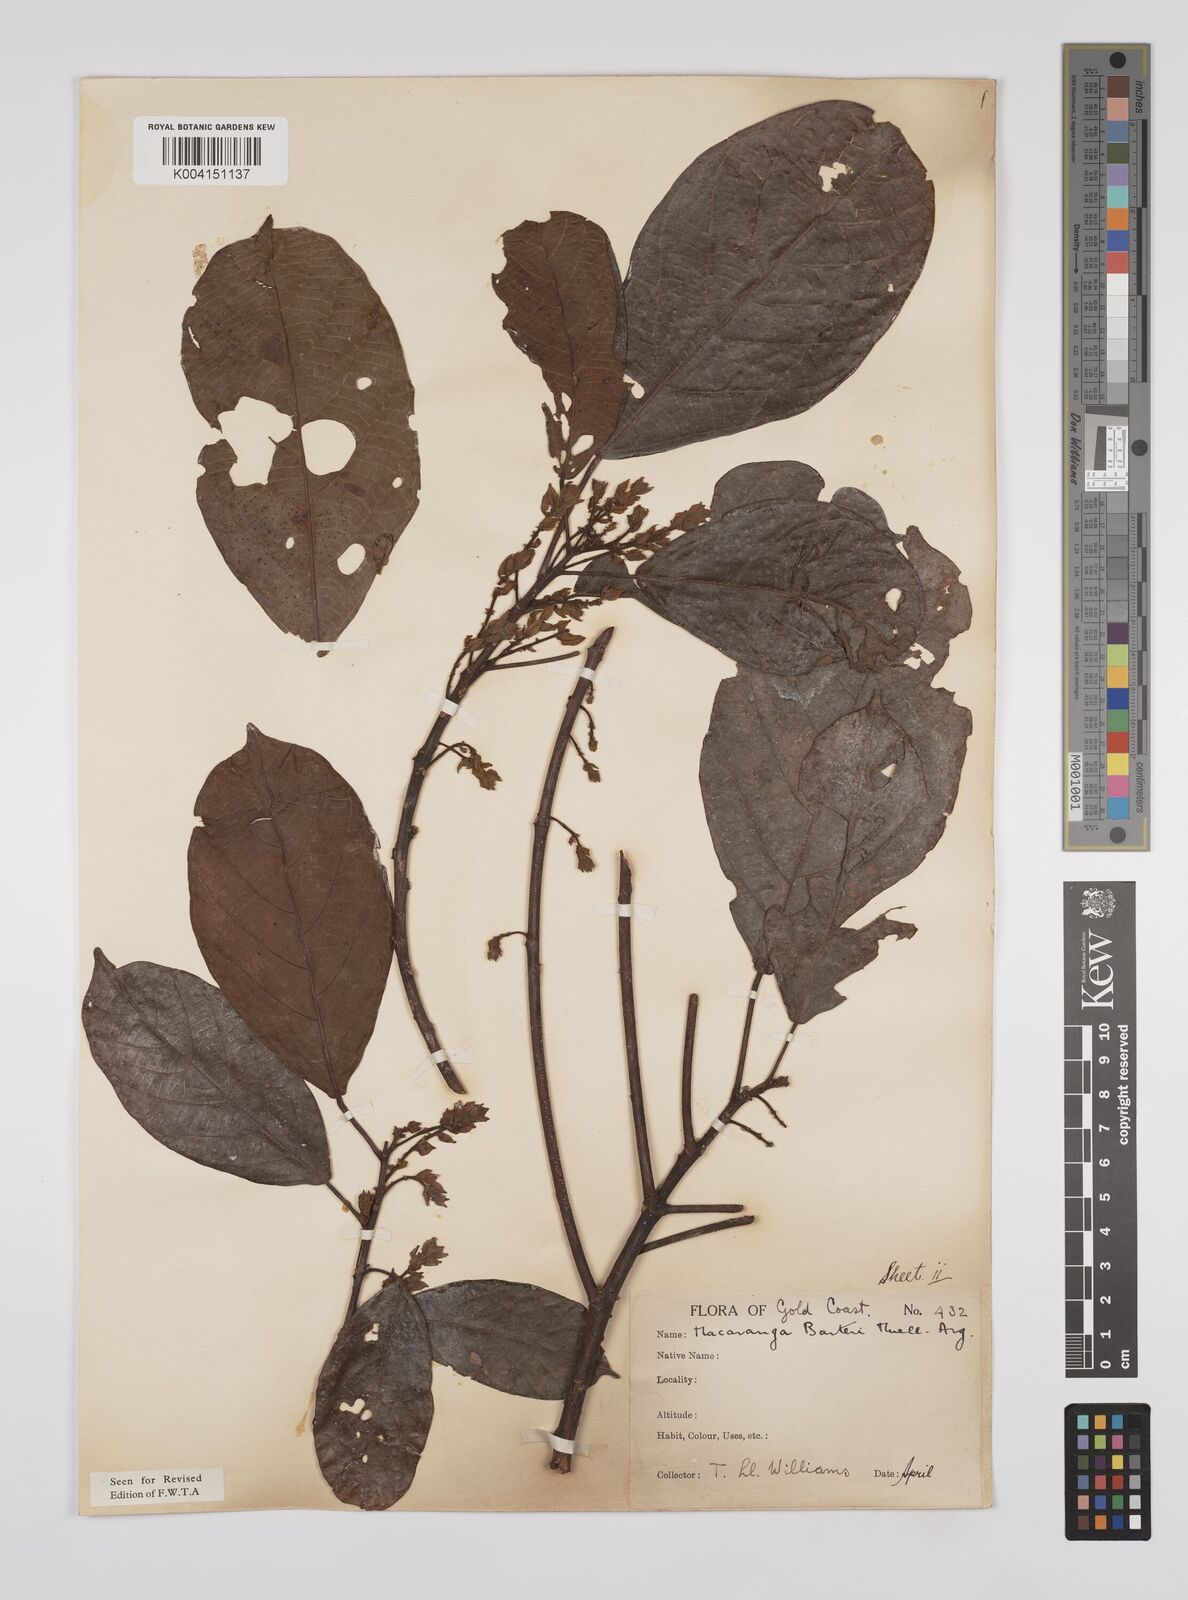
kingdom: Plantae
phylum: Tracheophyta
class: Magnoliopsida
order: Malpighiales
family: Euphorbiaceae
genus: Macaranga
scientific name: Macaranga barteri
